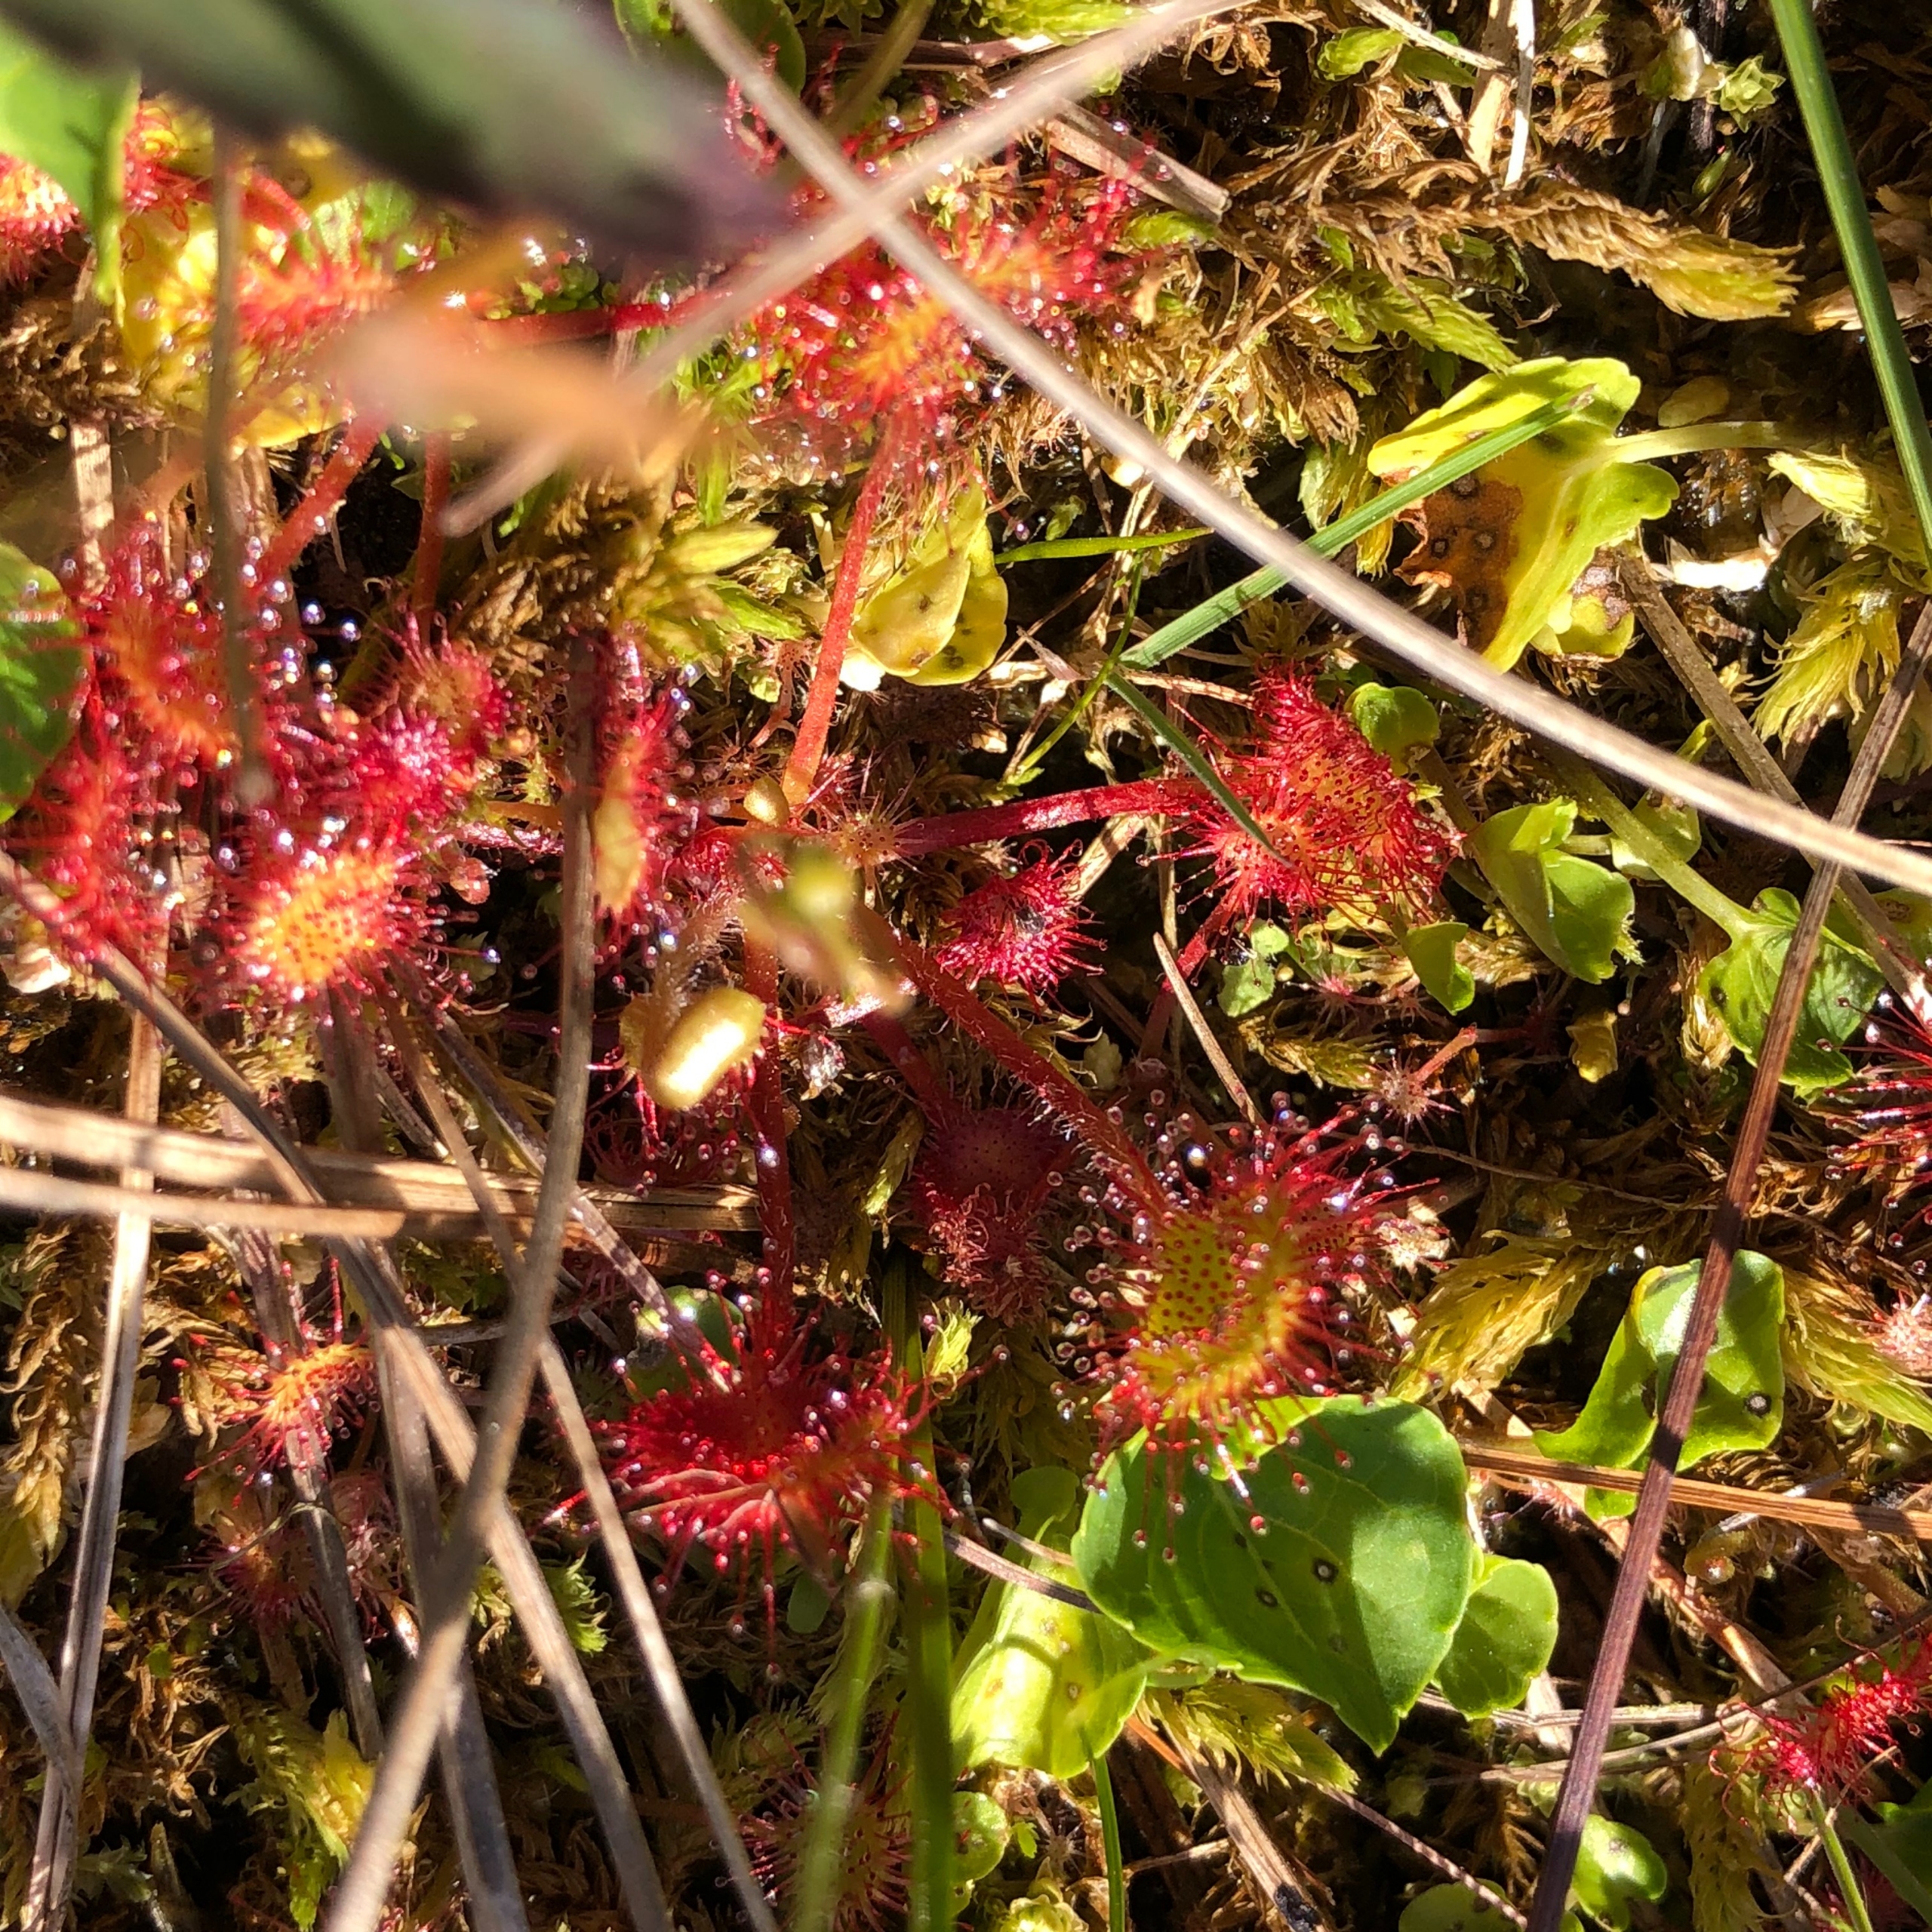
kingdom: Plantae
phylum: Tracheophyta
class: Magnoliopsida
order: Caryophyllales
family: Droseraceae
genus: Drosera
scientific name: Drosera rotundifolia
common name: Rundbladet soldug
